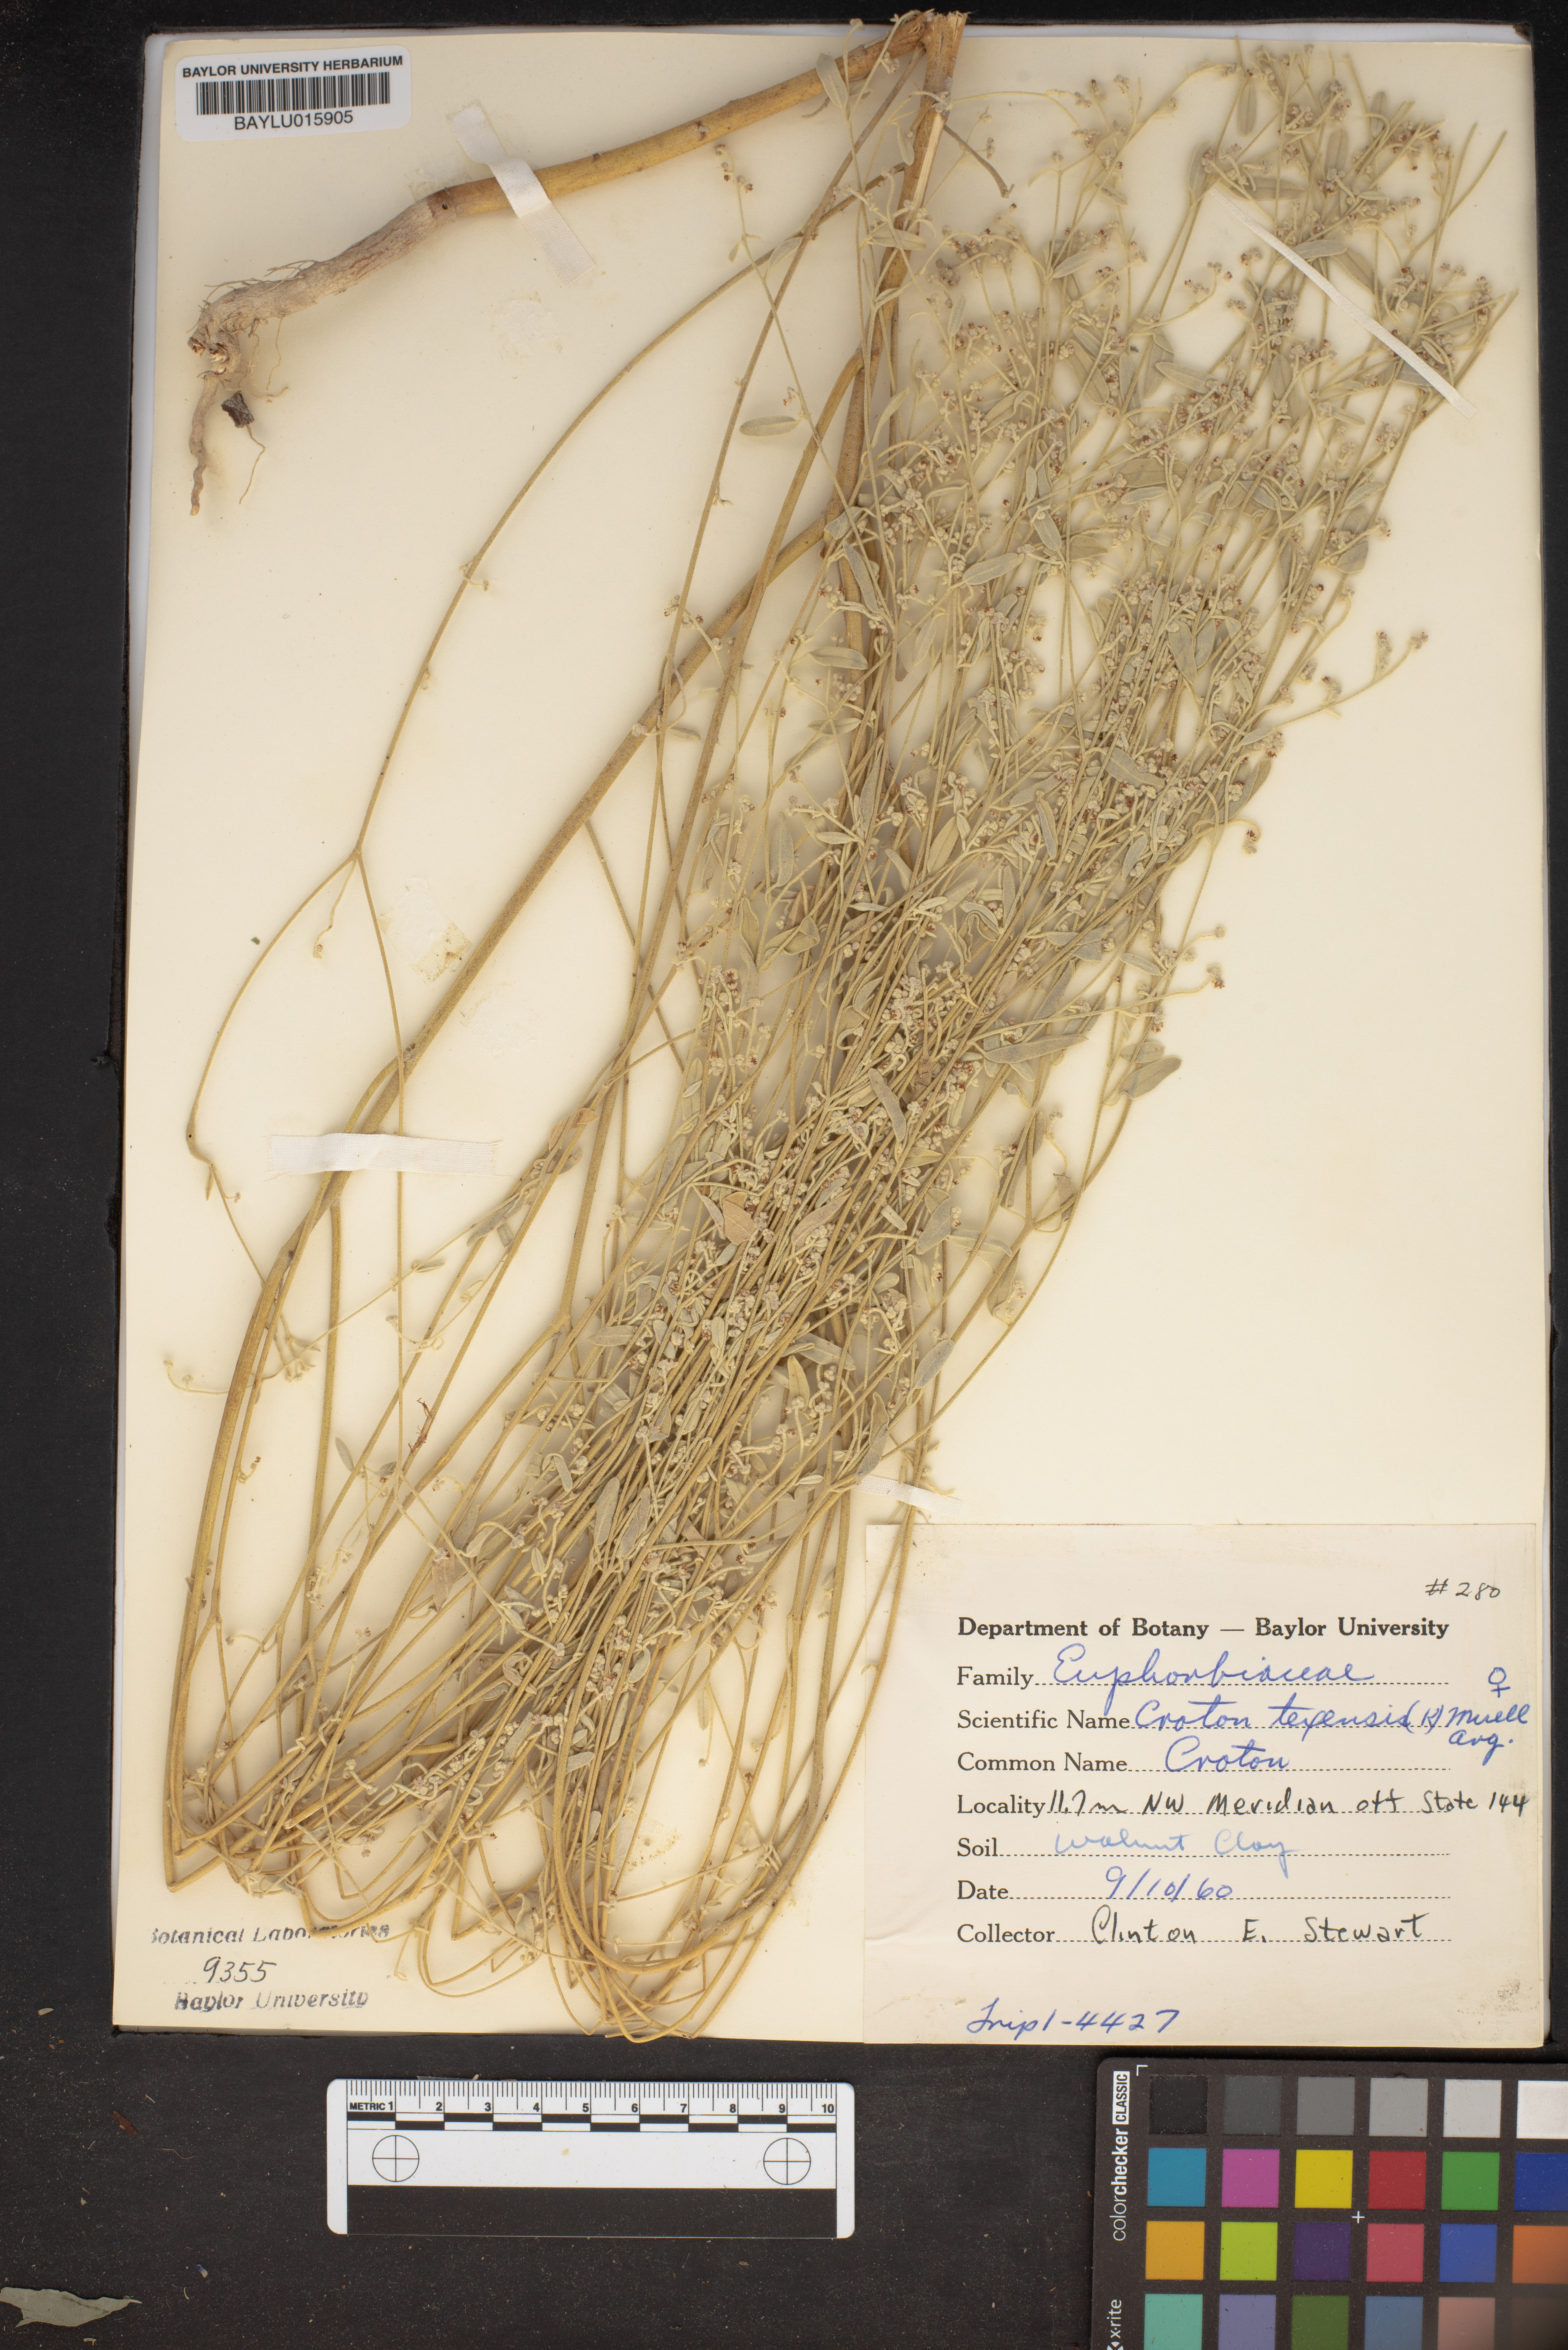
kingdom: Plantae
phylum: Tracheophyta
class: Magnoliopsida
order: Malpighiales
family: Euphorbiaceae
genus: Croton
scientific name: Croton texensis
